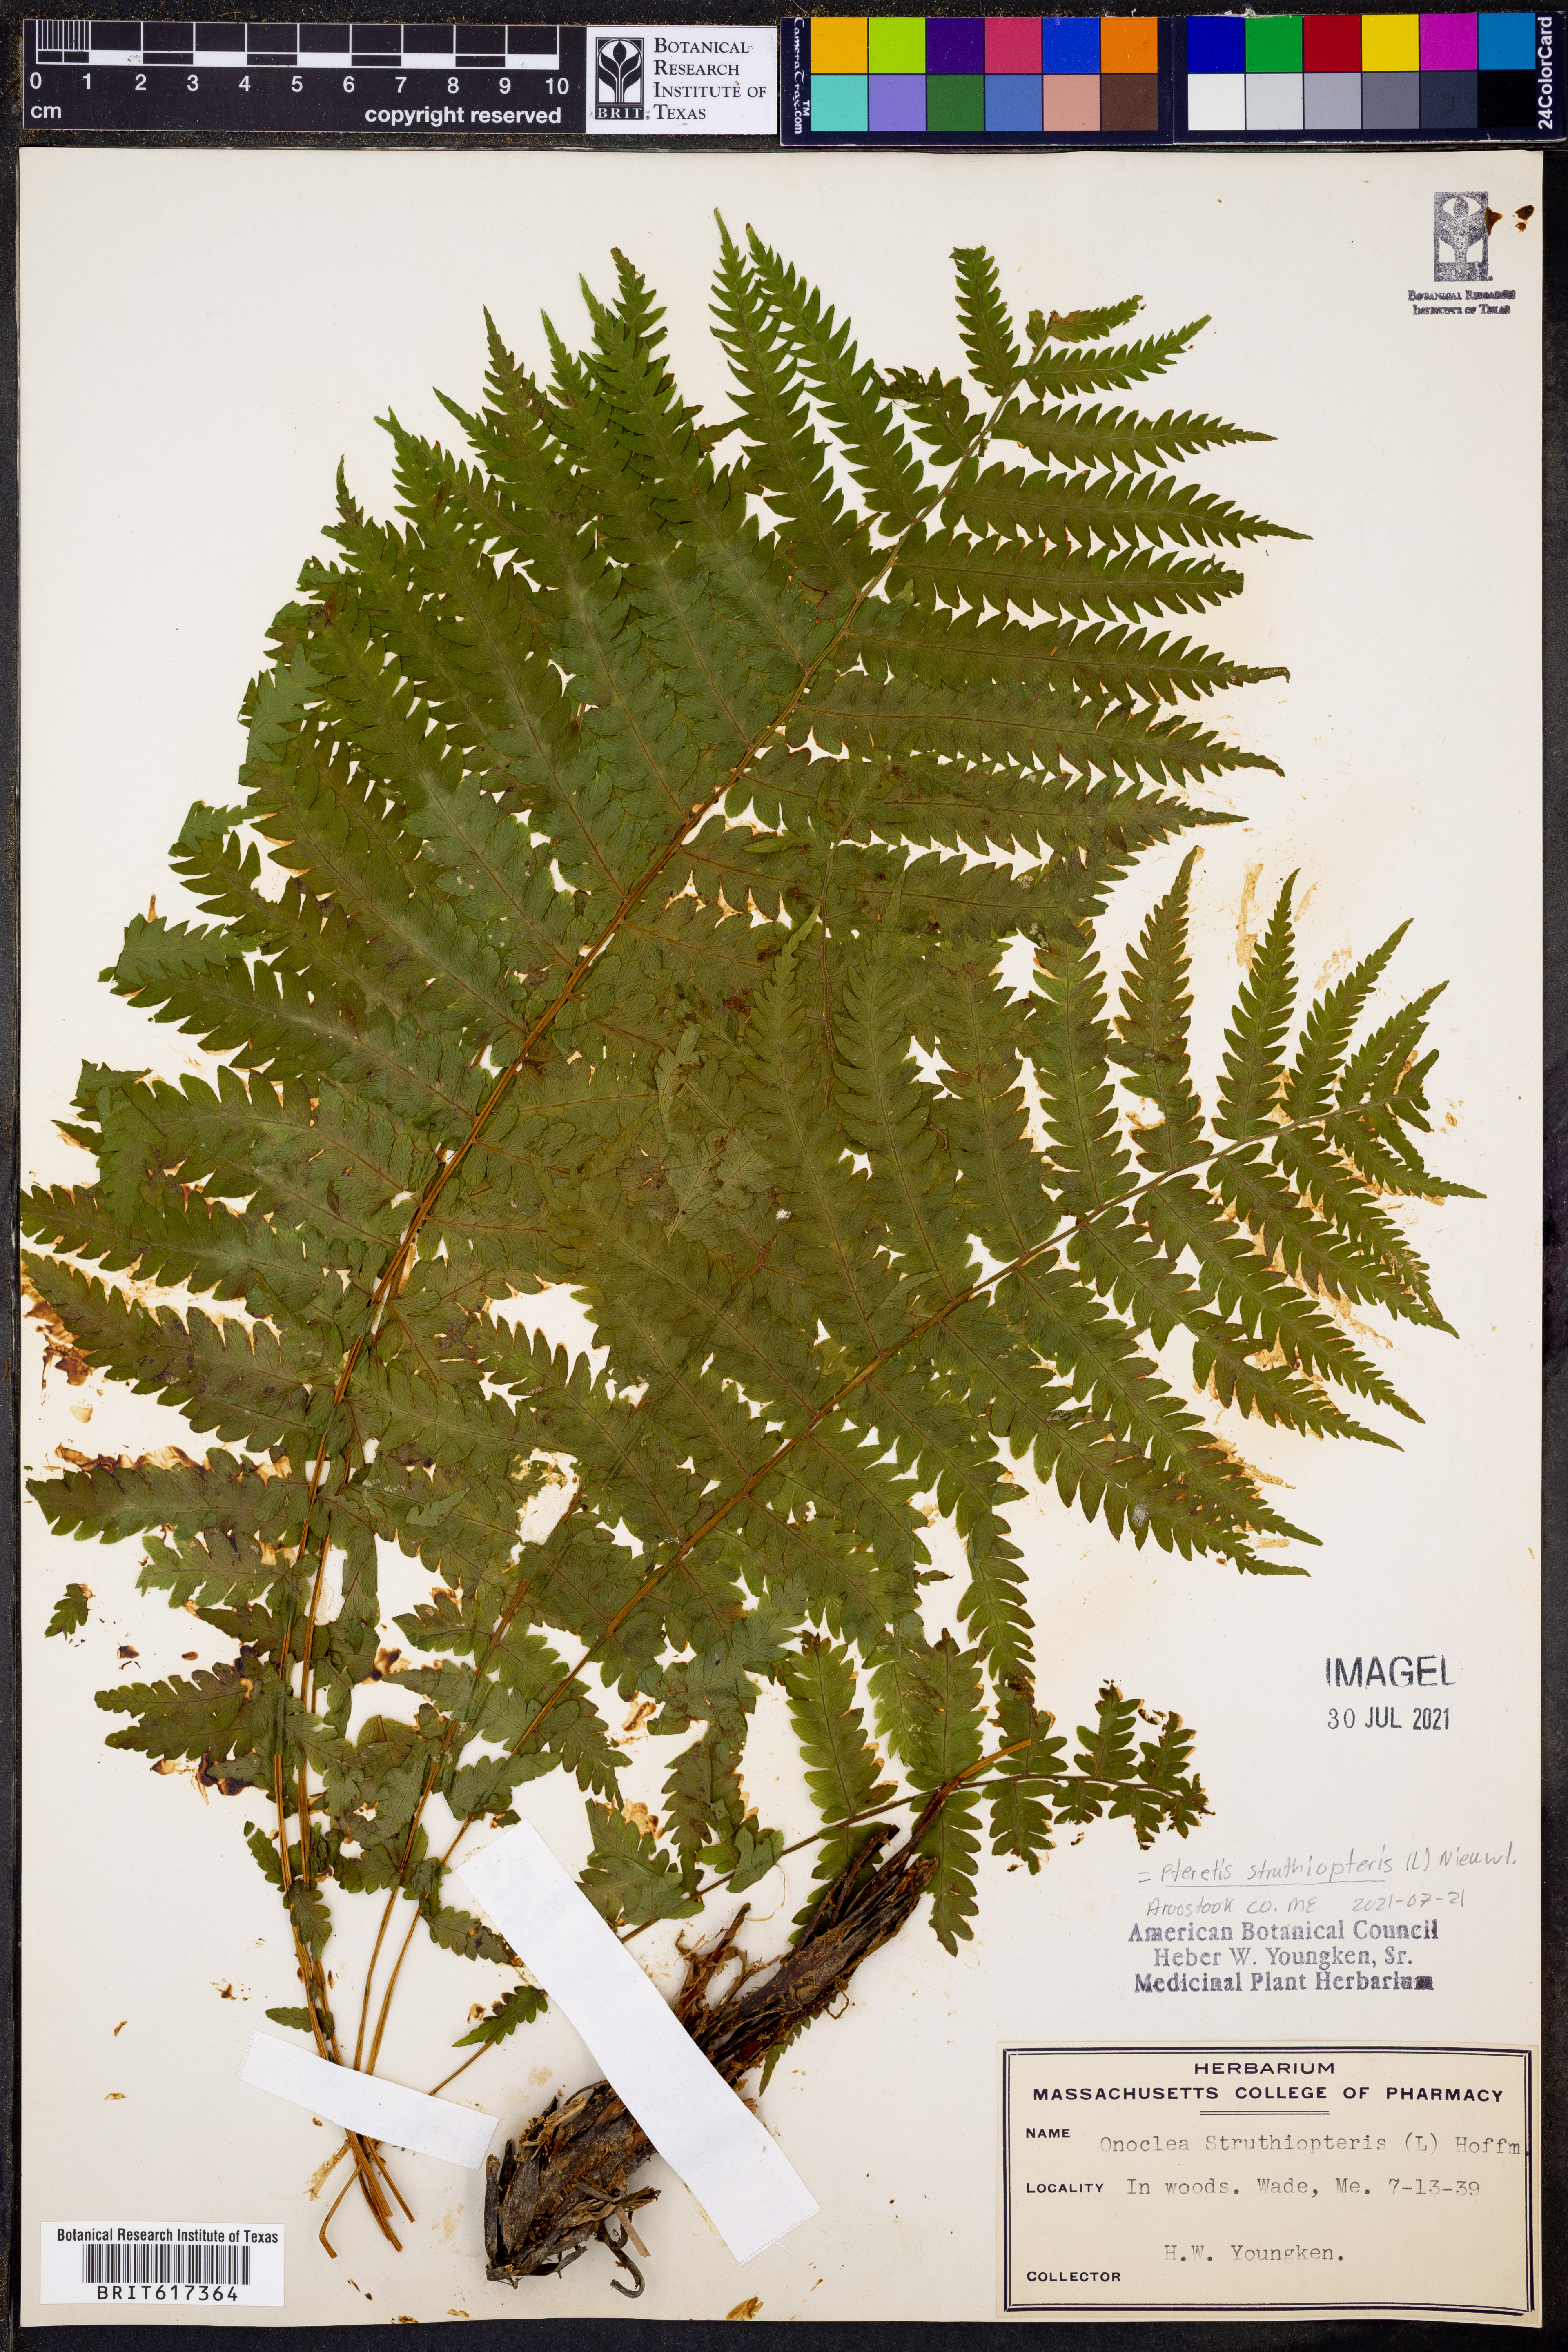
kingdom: Plantae
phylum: Tracheophyta
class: Polypodiopsida
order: Polypodiales
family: Onocleaceae
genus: Matteuccia
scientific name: Matteuccia struthiopteris
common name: Ostrich fern
